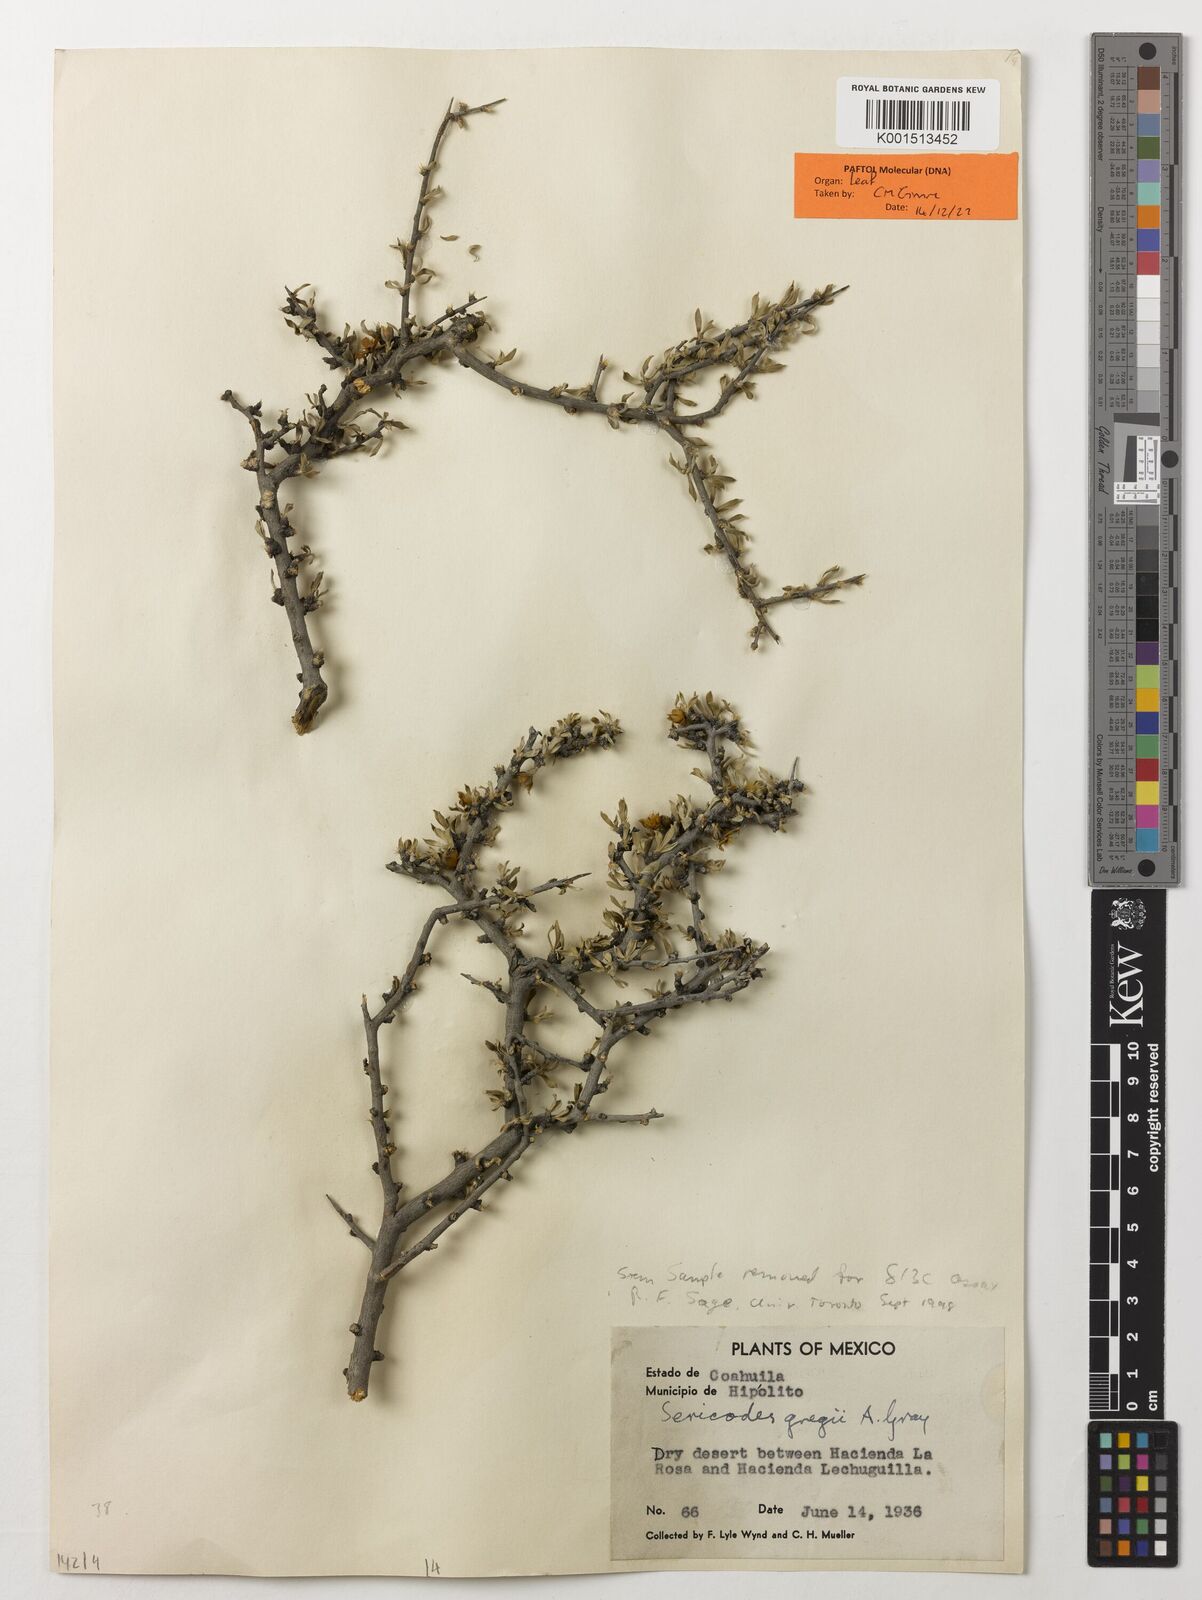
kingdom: Plantae
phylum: Tracheophyta
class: Magnoliopsida
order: Zygophyllales
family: Zygophyllaceae
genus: Sericodes
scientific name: Sericodes greggii
